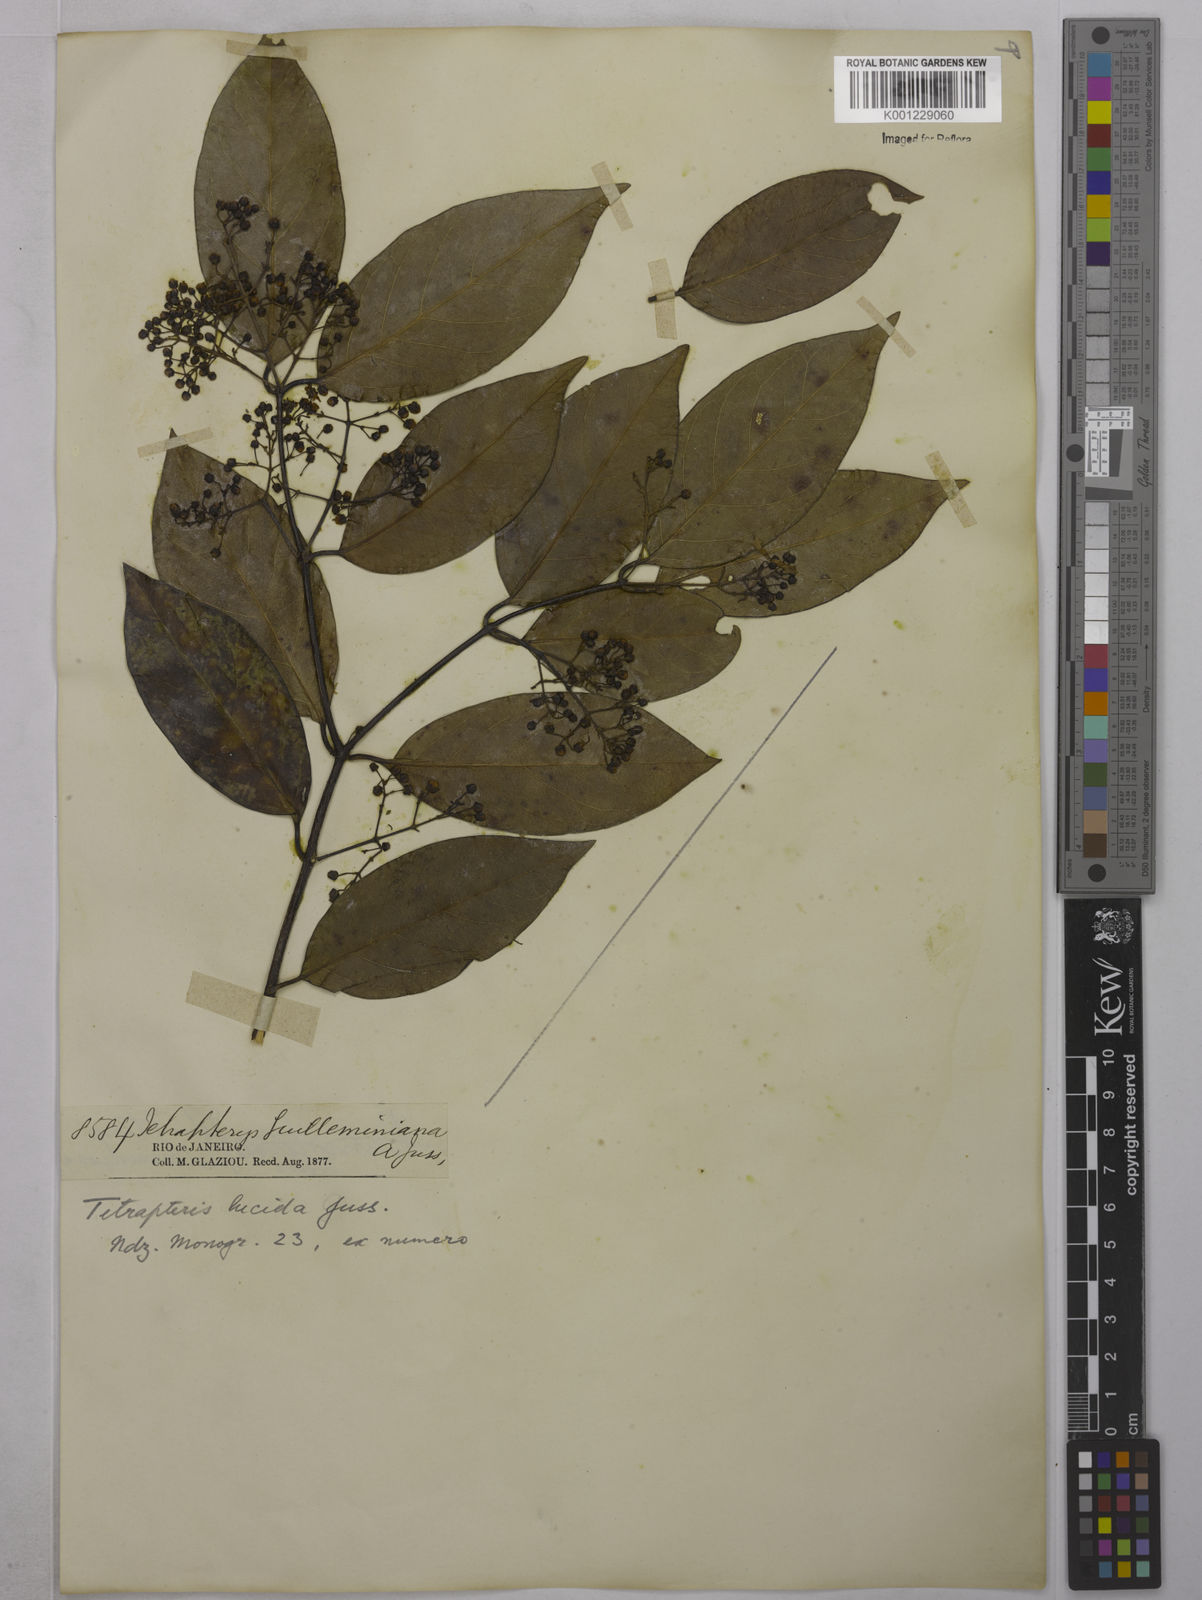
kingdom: Plantae
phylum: Tracheophyta
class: Magnoliopsida
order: Malpighiales
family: Malpighiaceae
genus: Niedenzuella
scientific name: Niedenzuella lucida
